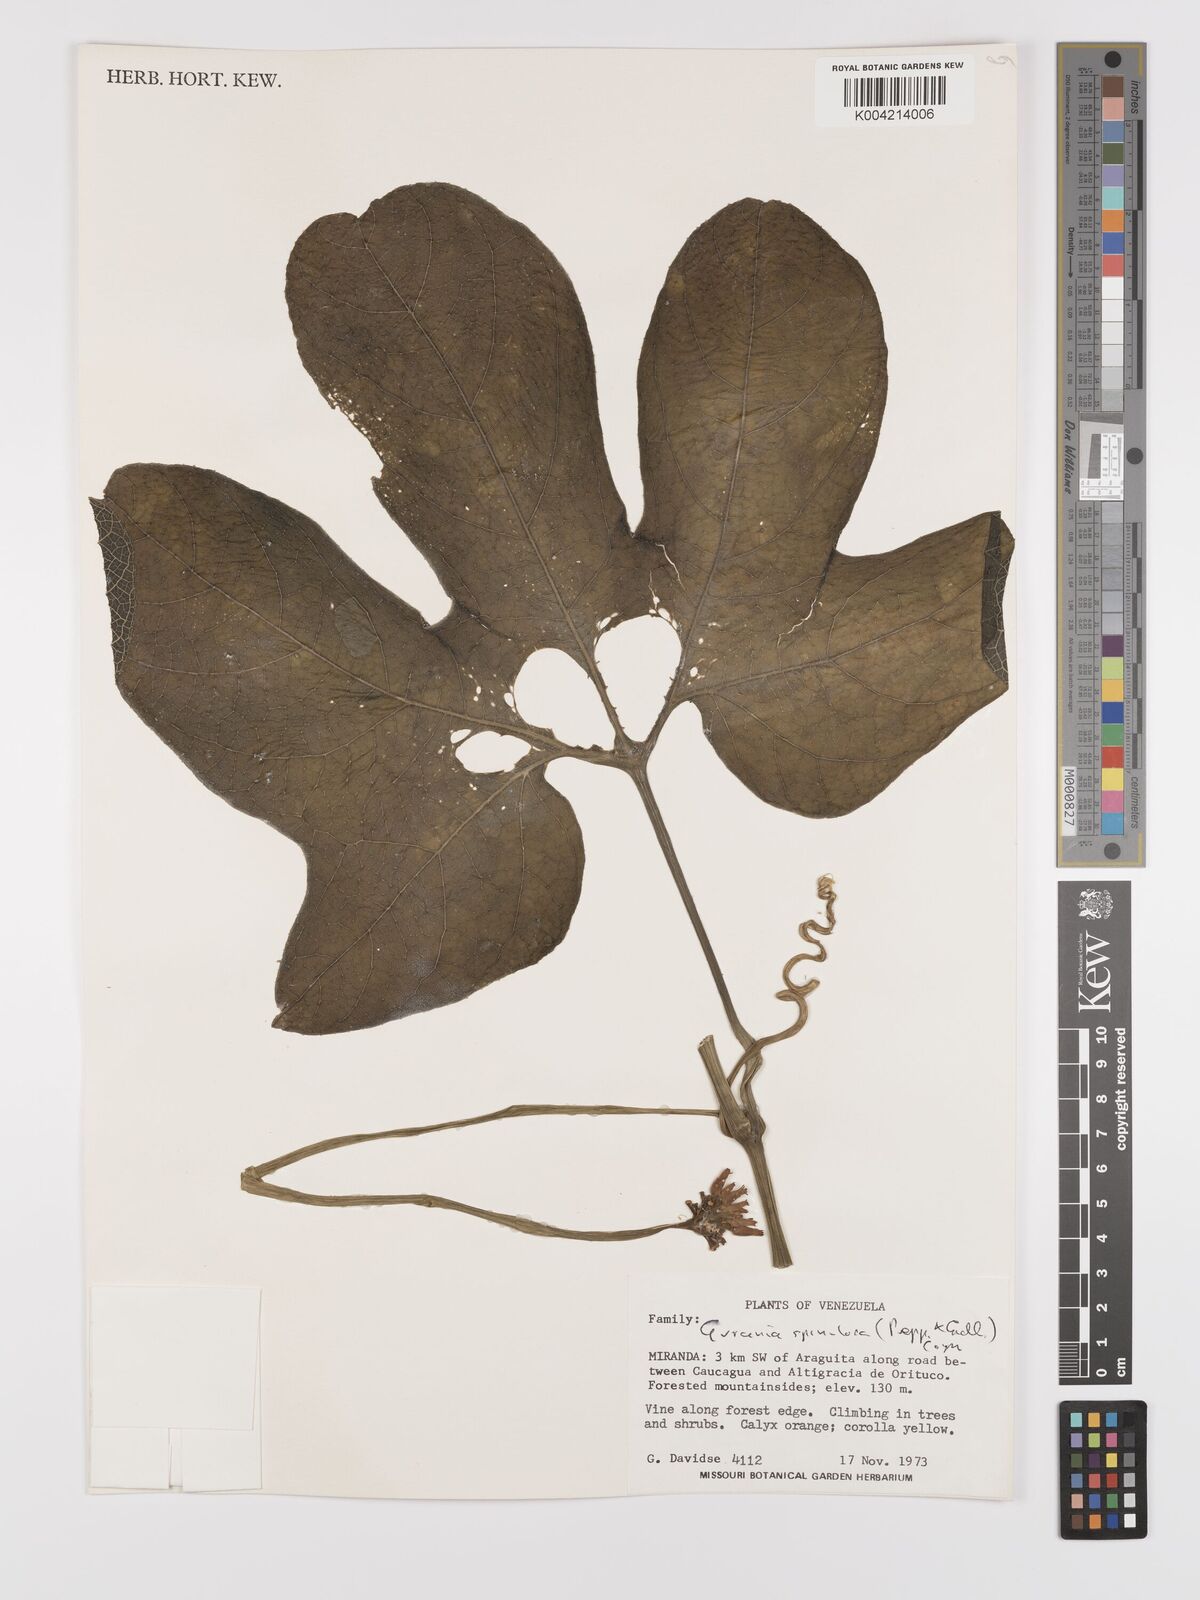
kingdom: Plantae
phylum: Tracheophyta
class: Magnoliopsida
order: Cucurbitales
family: Cucurbitaceae
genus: Gurania
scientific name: Gurania lobata
